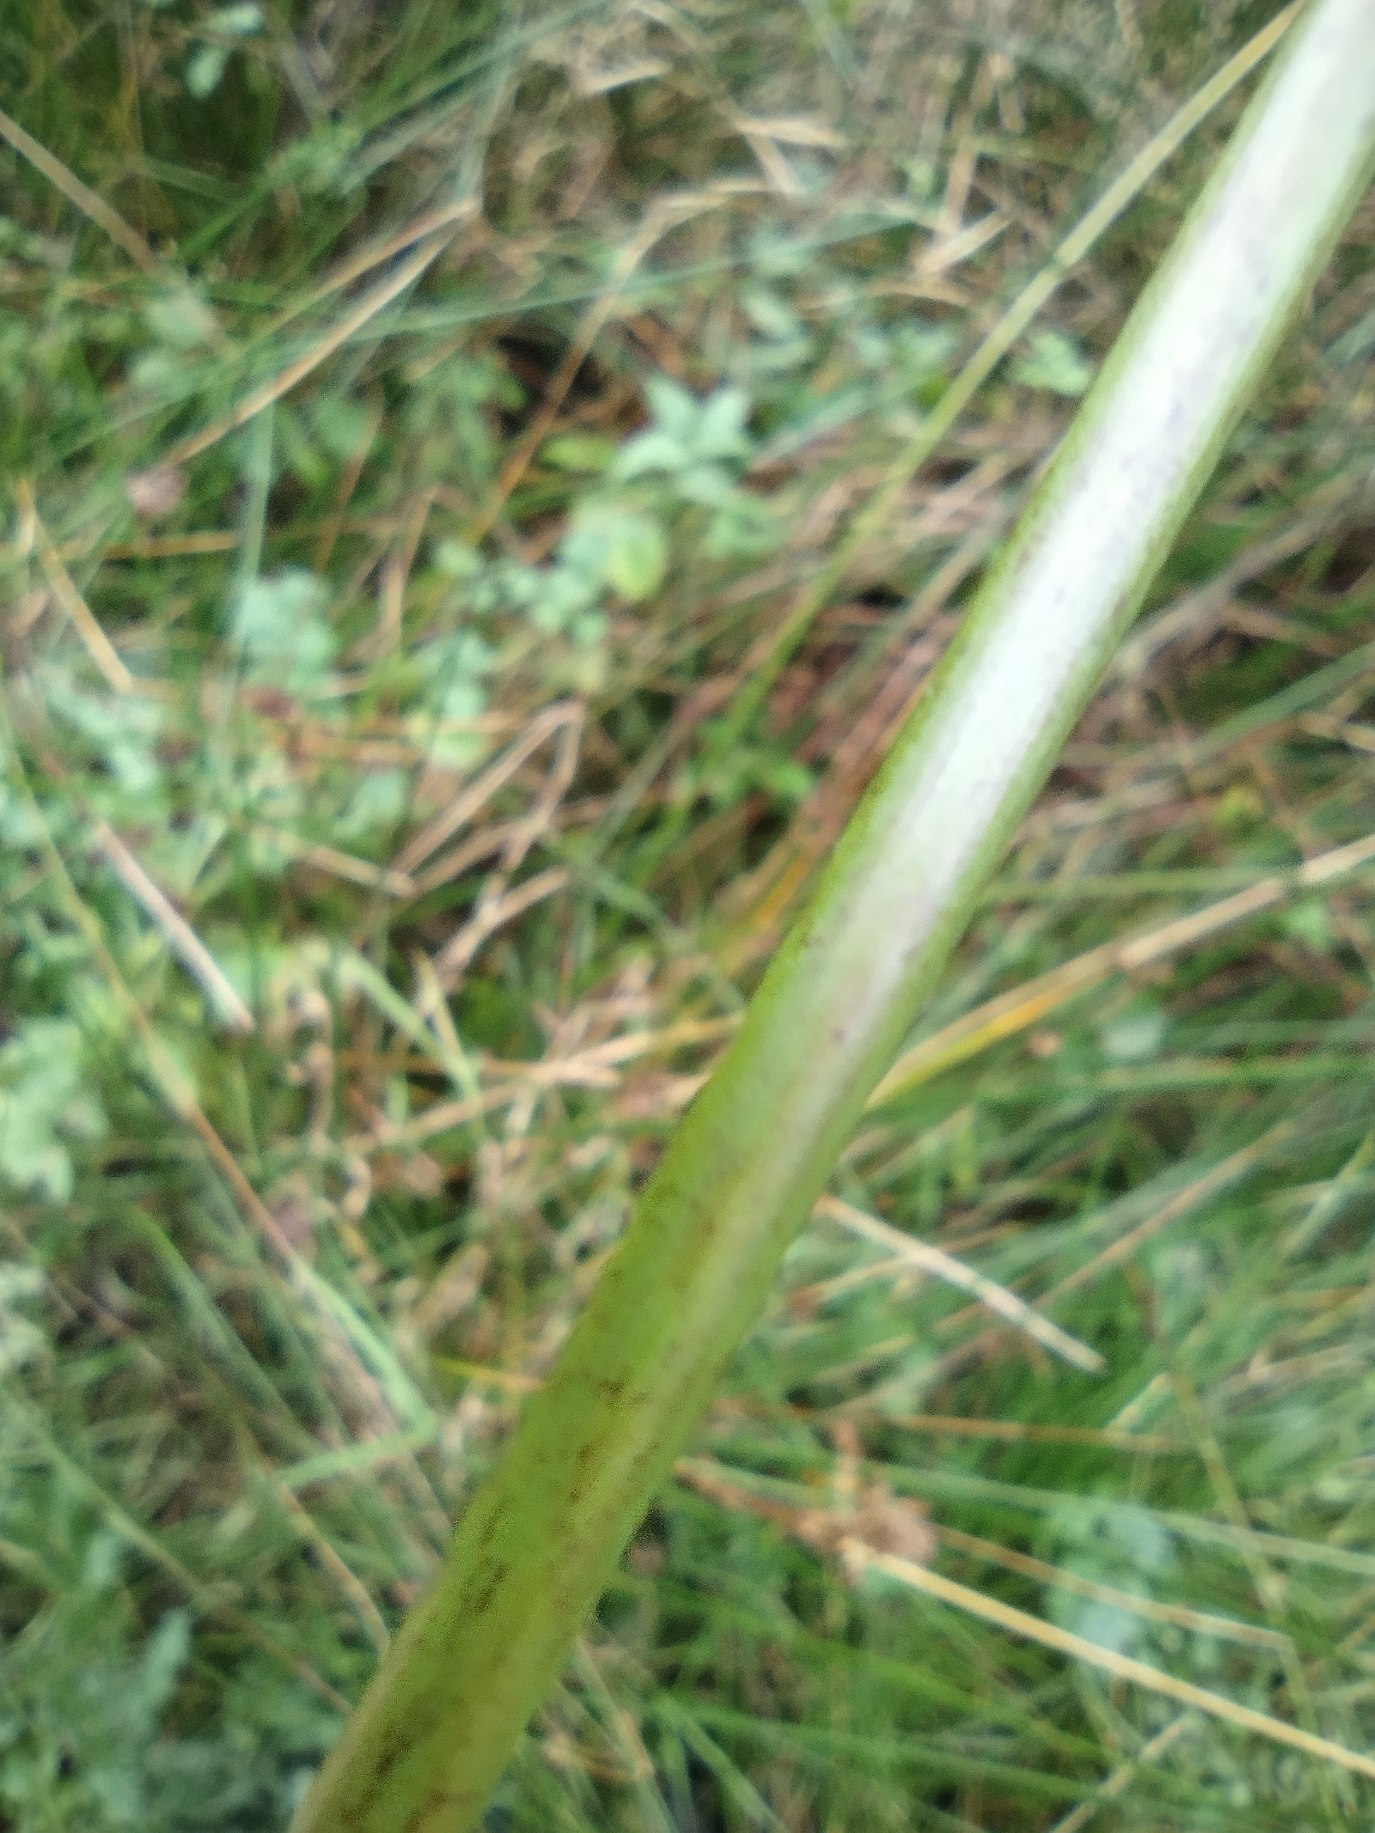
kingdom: Plantae
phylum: Tracheophyta
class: Liliopsida
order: Poales
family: Juncaceae
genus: Juncus
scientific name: Juncus effusus
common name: Lyse-siv
